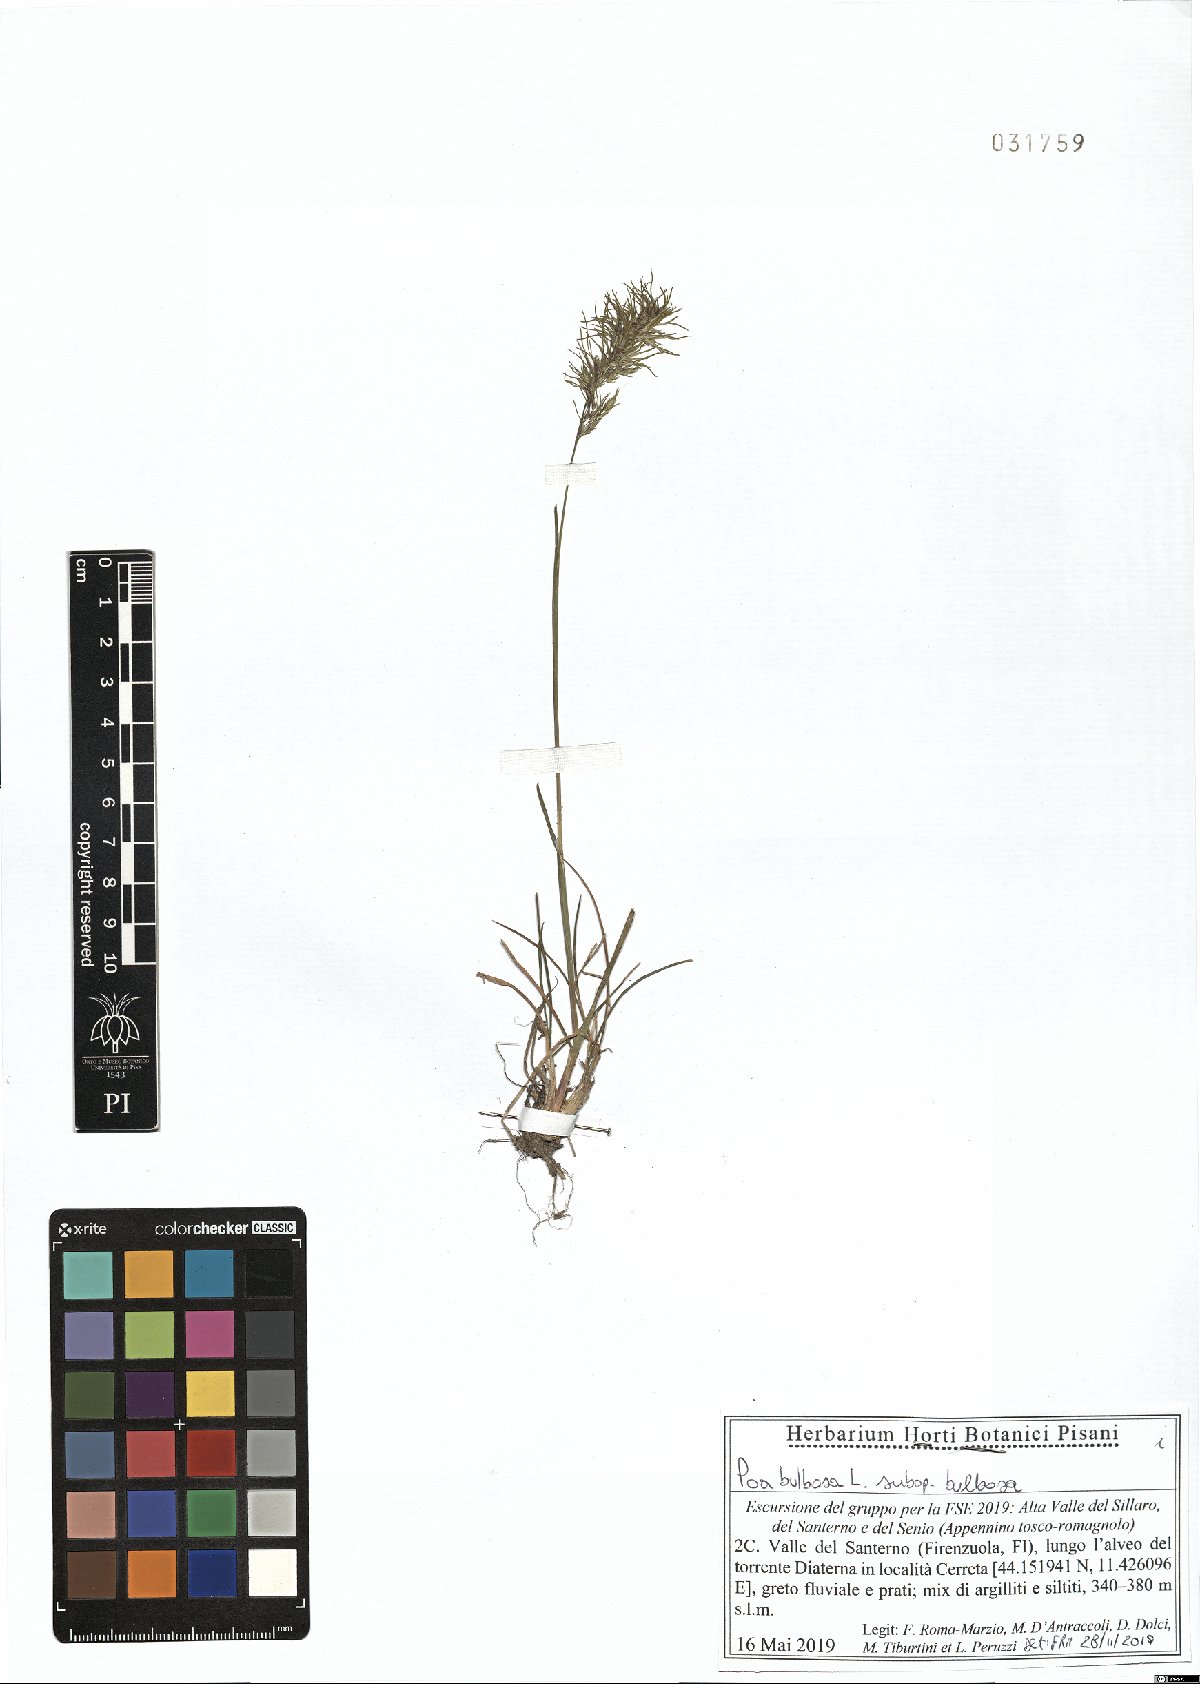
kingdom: Plantae
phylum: Tracheophyta
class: Liliopsida
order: Poales
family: Poaceae
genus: Poa
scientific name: Poa bulbosa
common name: Bulbous bluegrass
